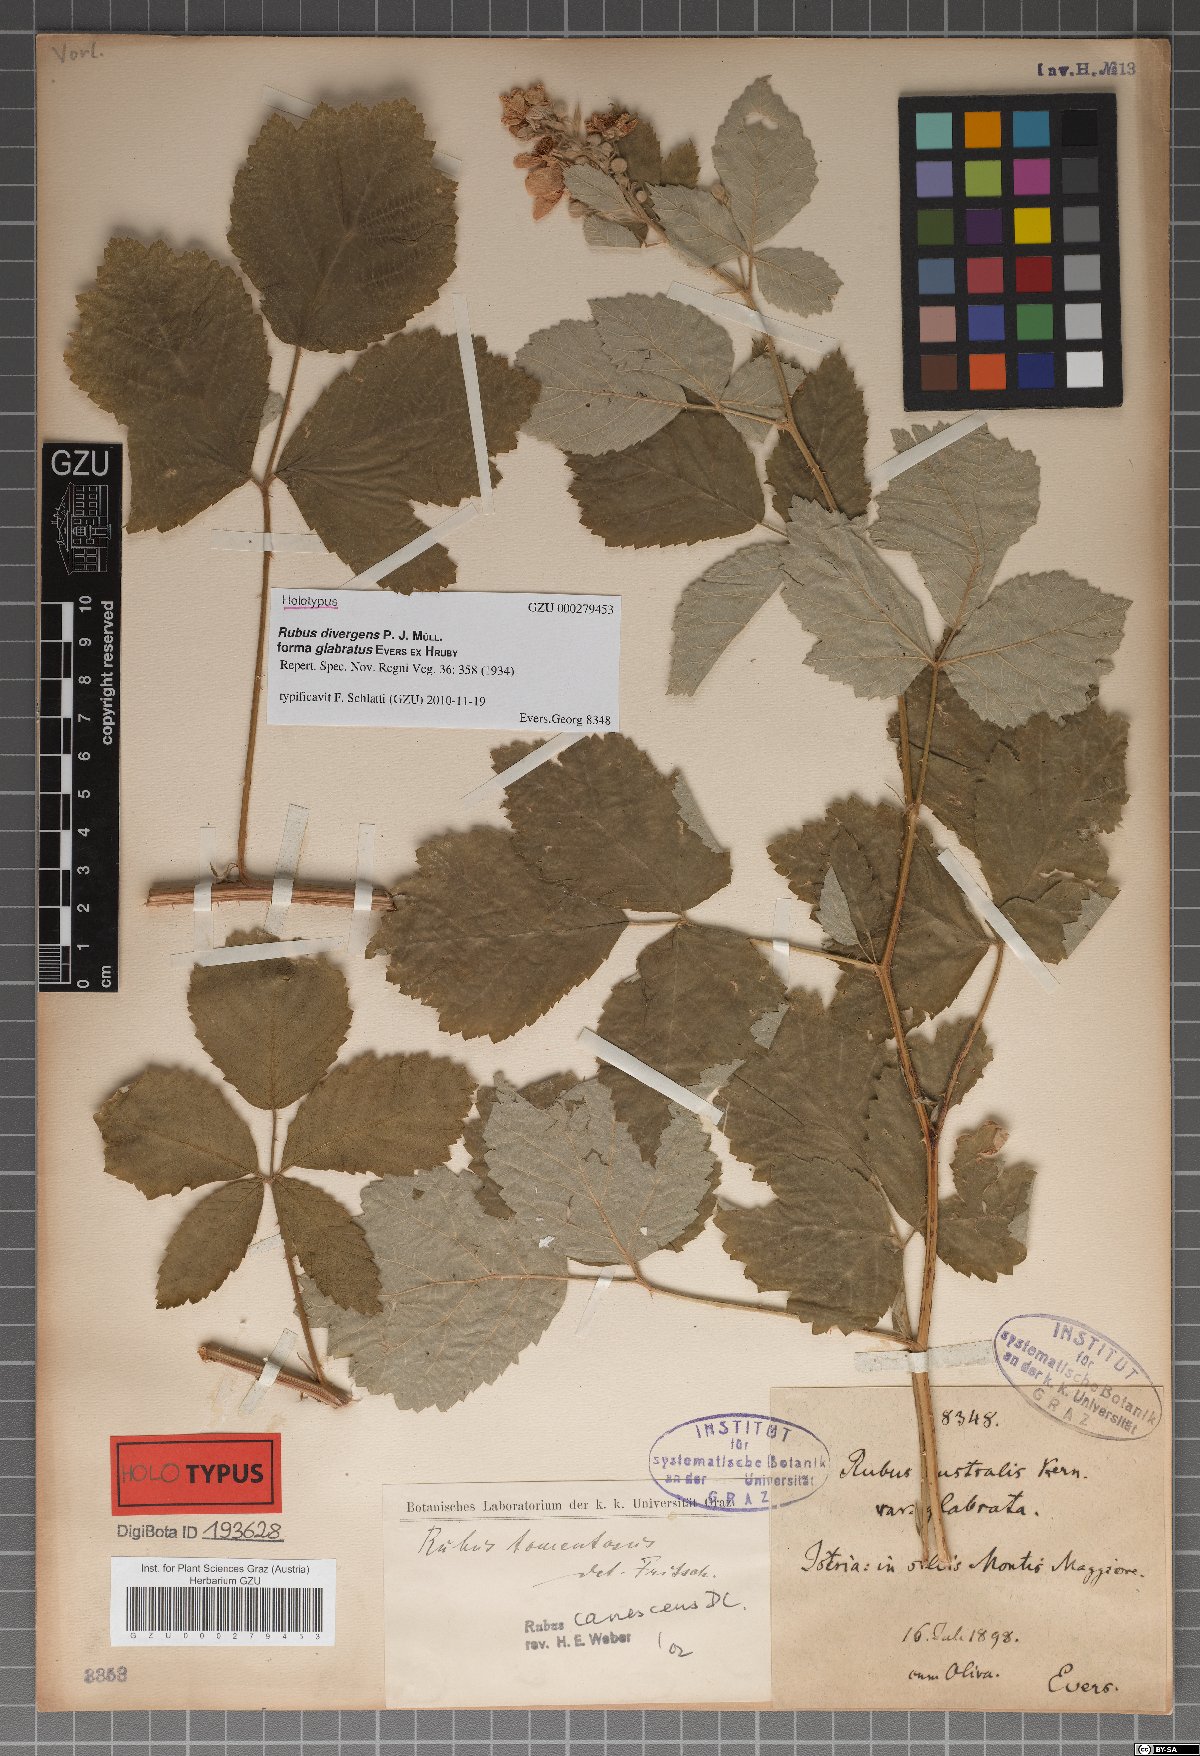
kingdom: Plantae
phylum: Tracheophyta
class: Magnoliopsida
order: Rosales
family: Rosaceae
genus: Rubus
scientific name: Rubus divergens
